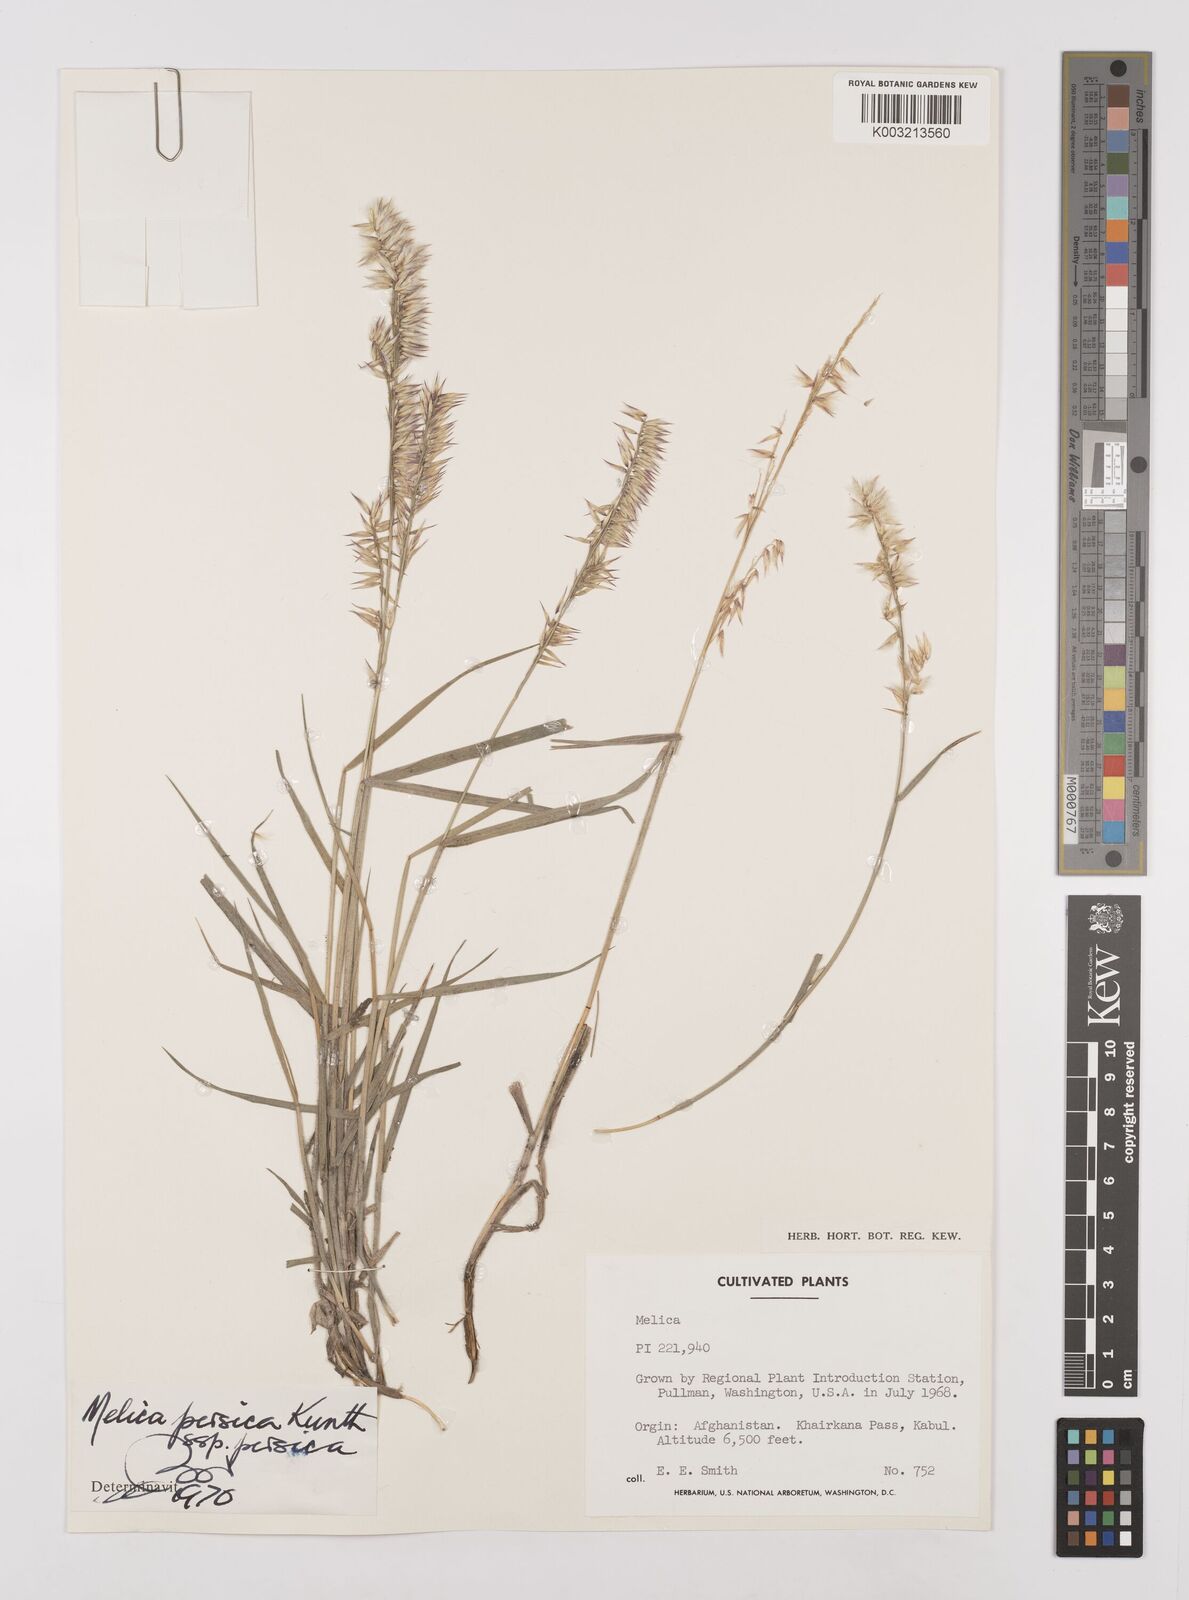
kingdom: Plantae
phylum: Tracheophyta
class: Liliopsida
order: Poales
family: Poaceae
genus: Melica
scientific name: Melica persica
